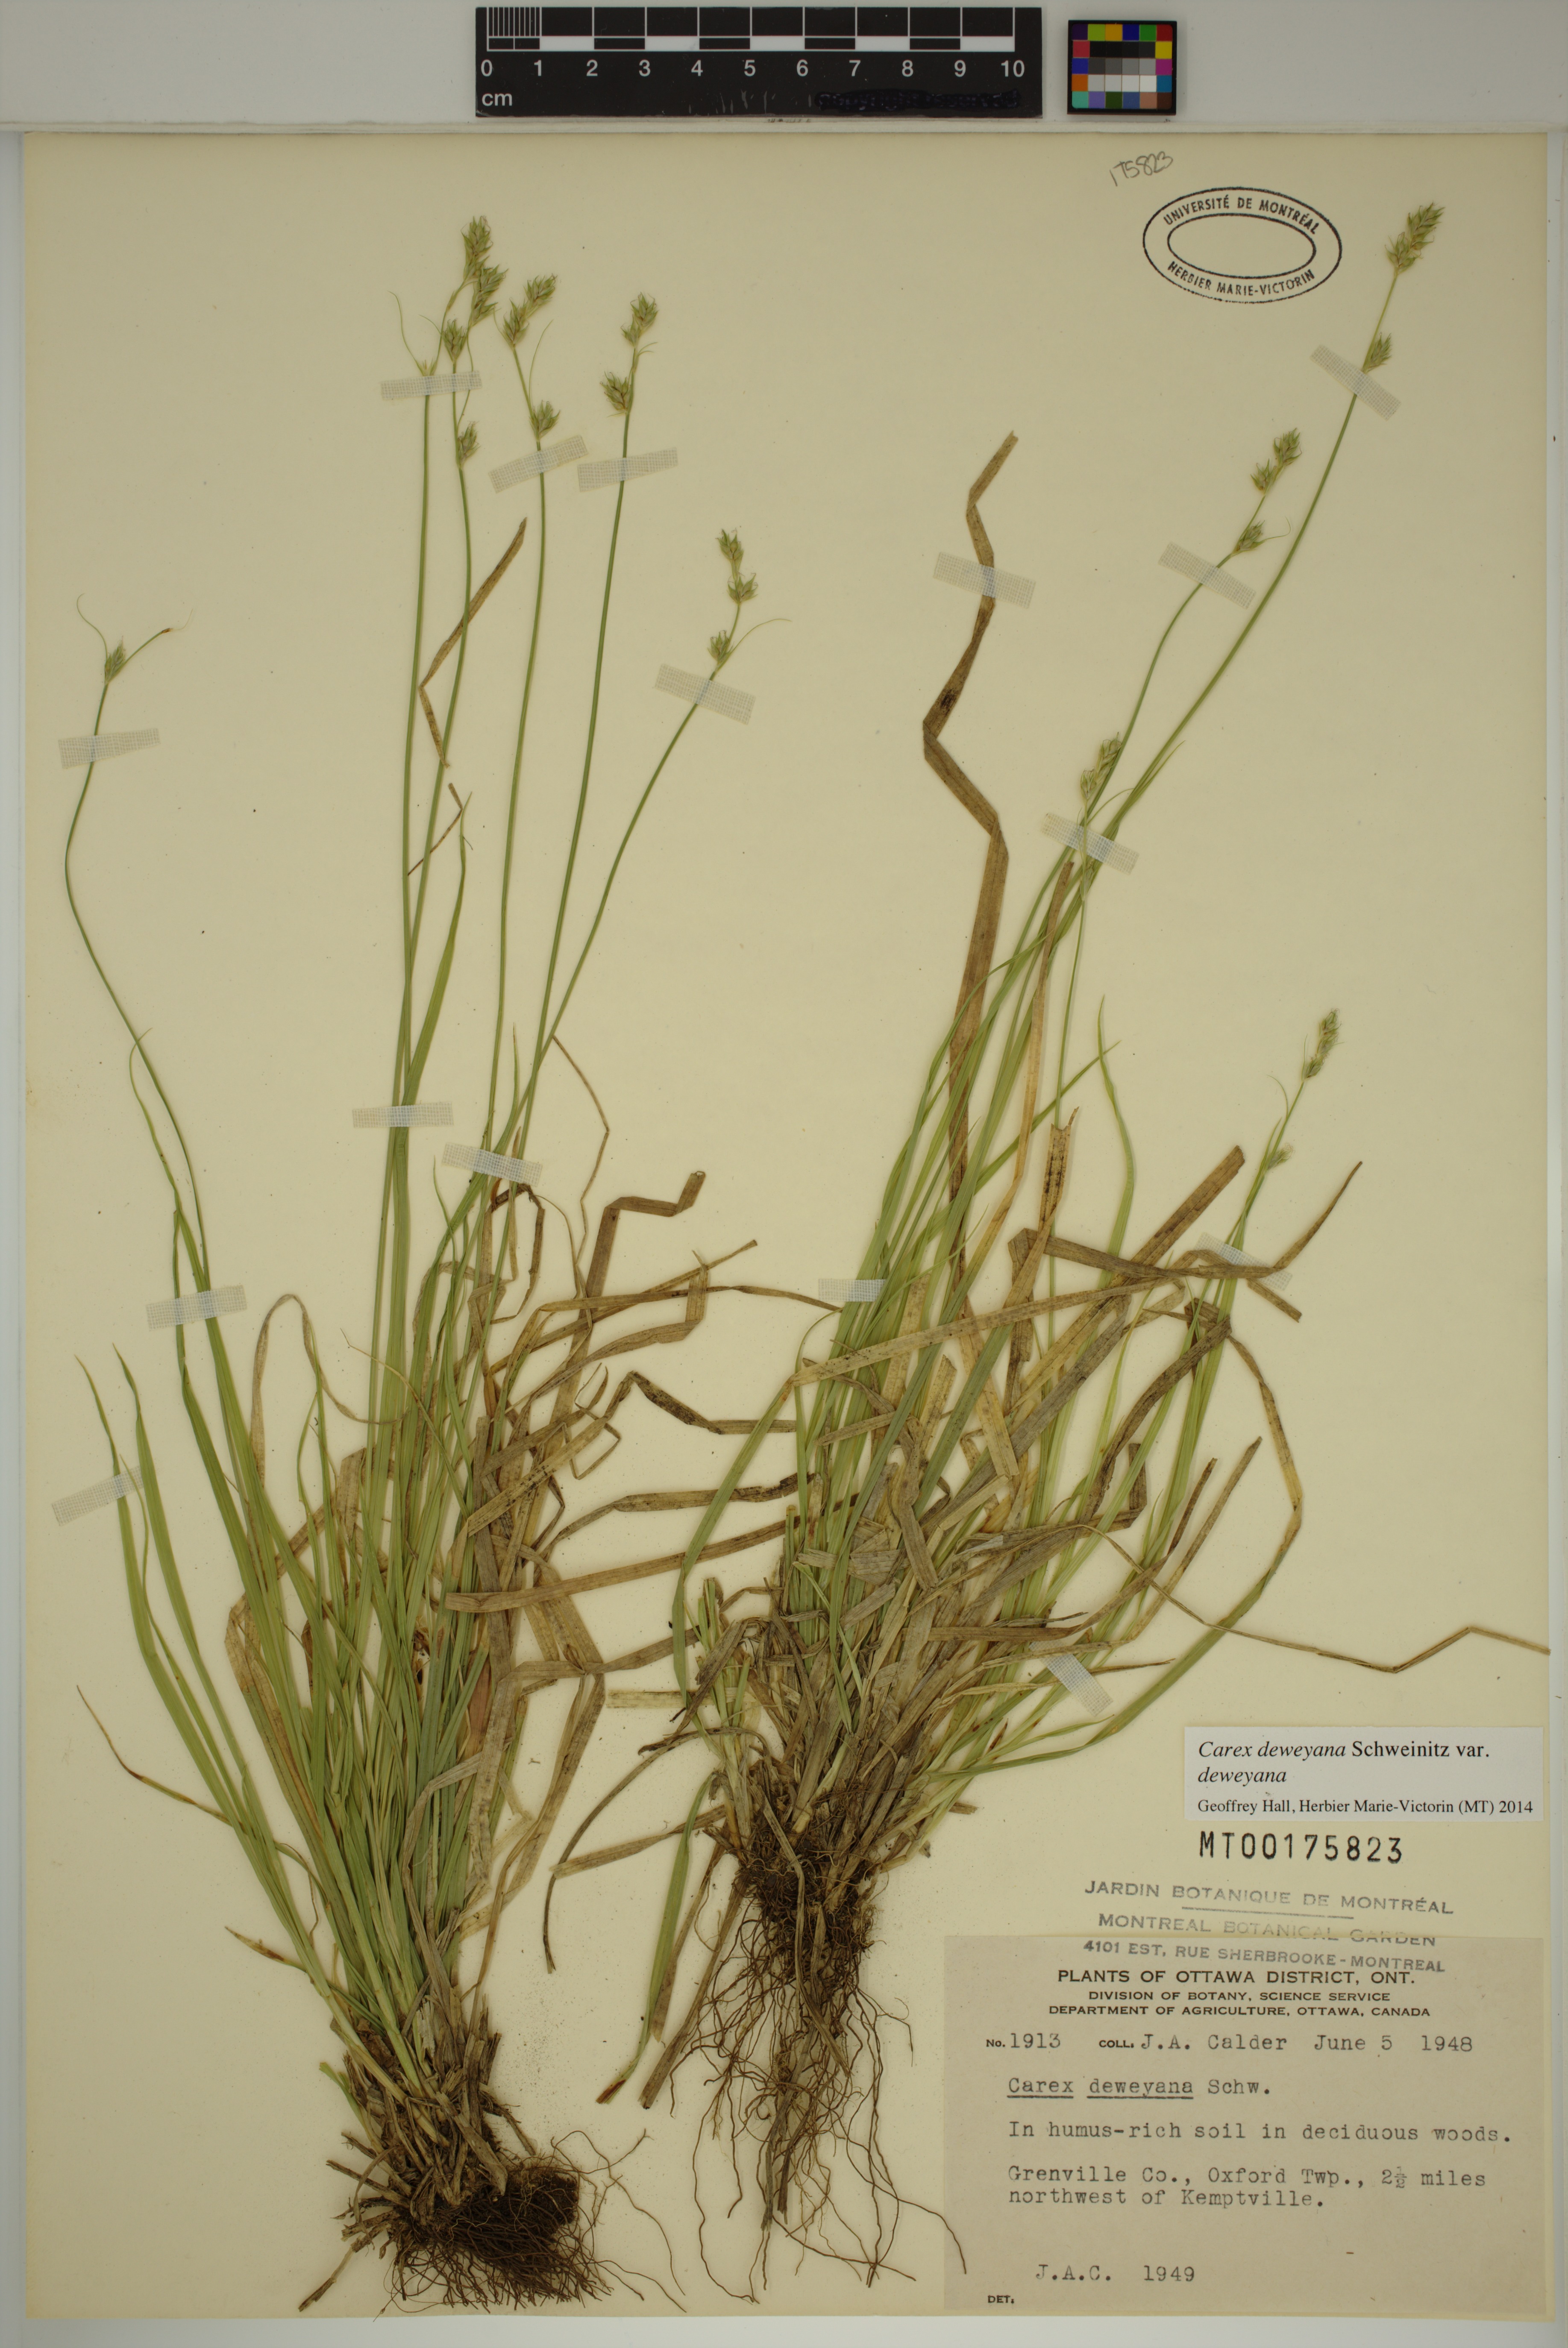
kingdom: Plantae
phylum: Tracheophyta
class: Liliopsida
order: Poales
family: Cyperaceae
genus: Carex
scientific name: Carex deweyana
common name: Dewey's sedge
